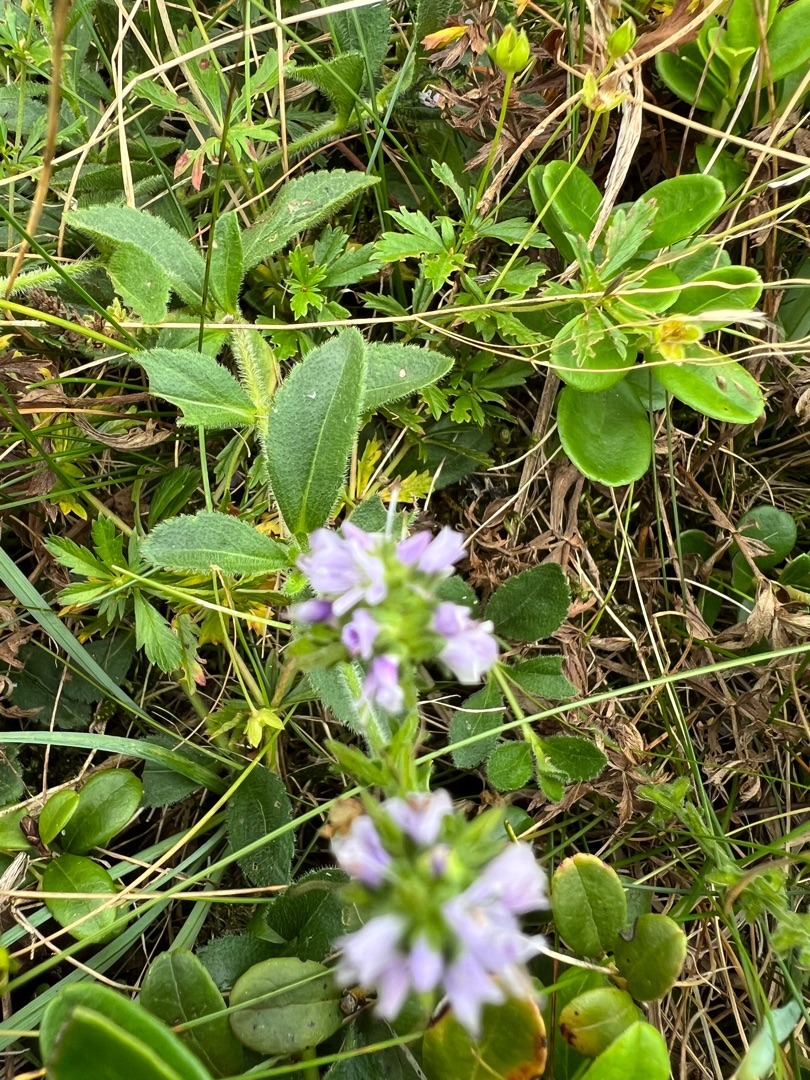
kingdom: Plantae
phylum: Tracheophyta
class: Magnoliopsida
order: Lamiales
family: Plantaginaceae
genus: Veronica
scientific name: Veronica officinalis
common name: Læge-ærenpris
